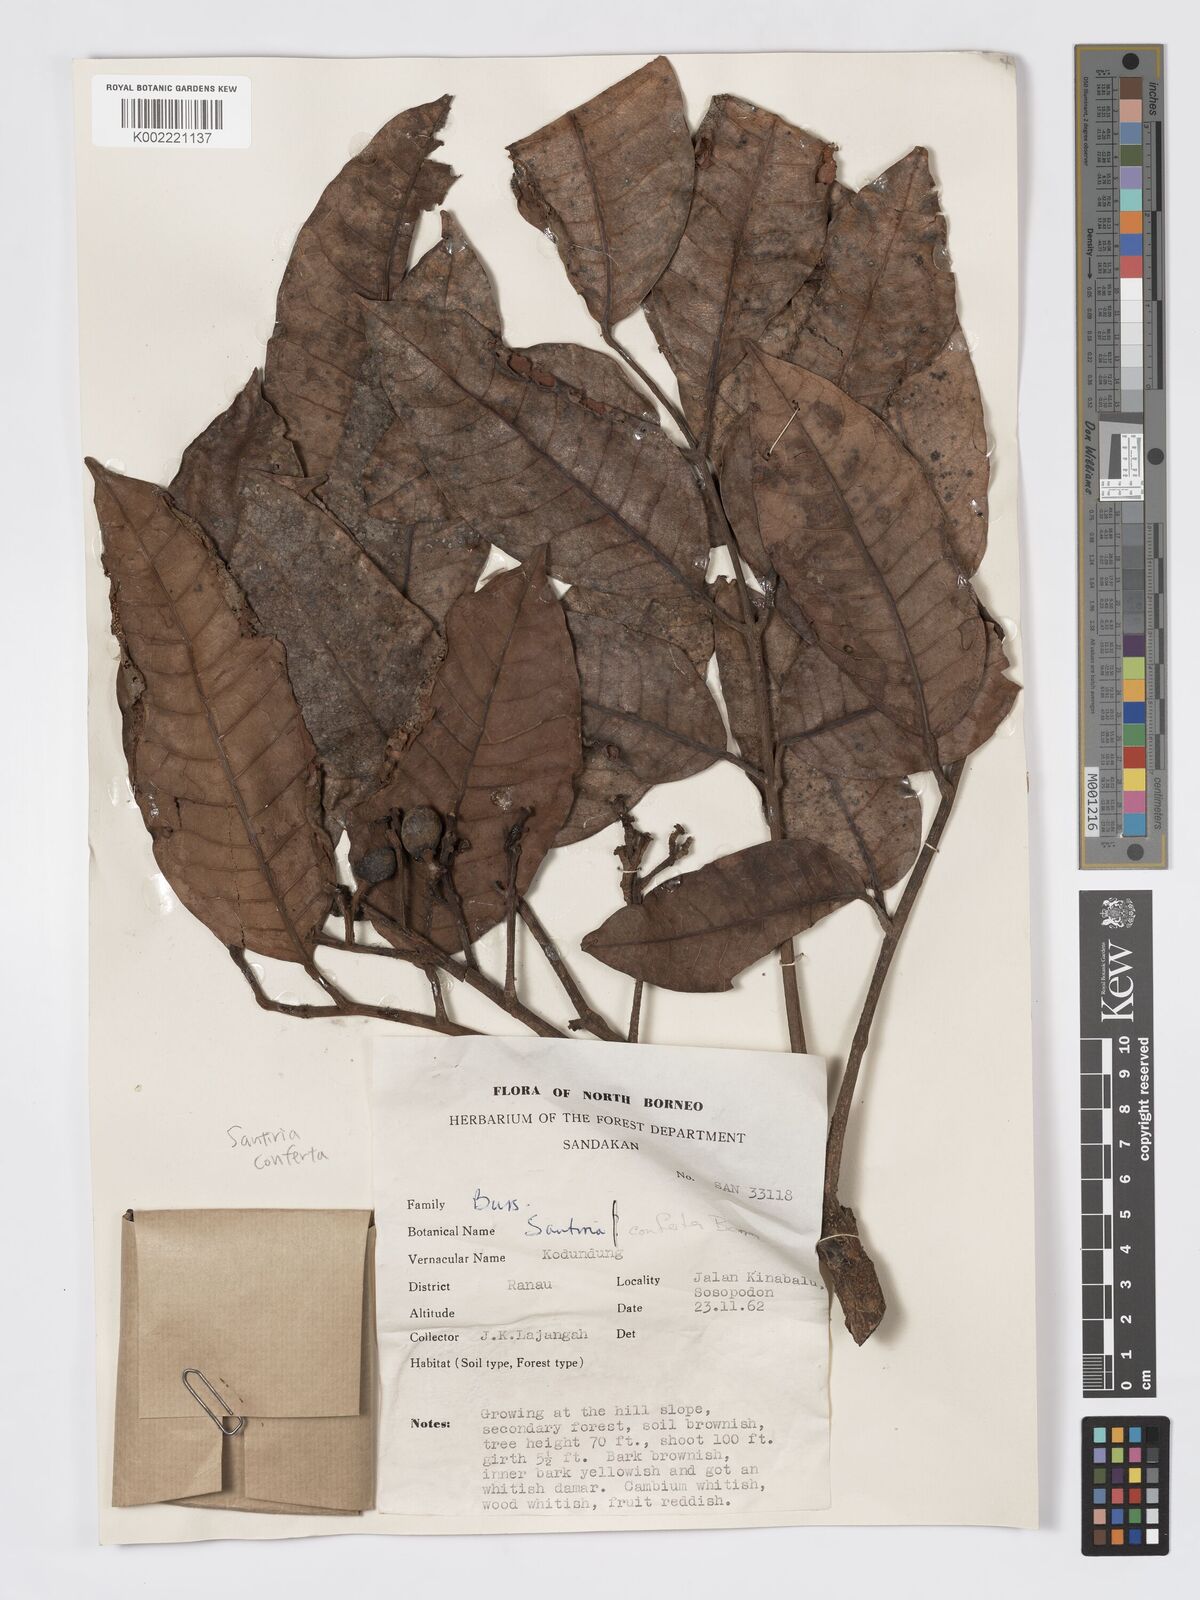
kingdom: Plantae
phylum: Tracheophyta
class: Magnoliopsida
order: Sapindales
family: Burseraceae
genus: Santiria
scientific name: Santiria conferta
